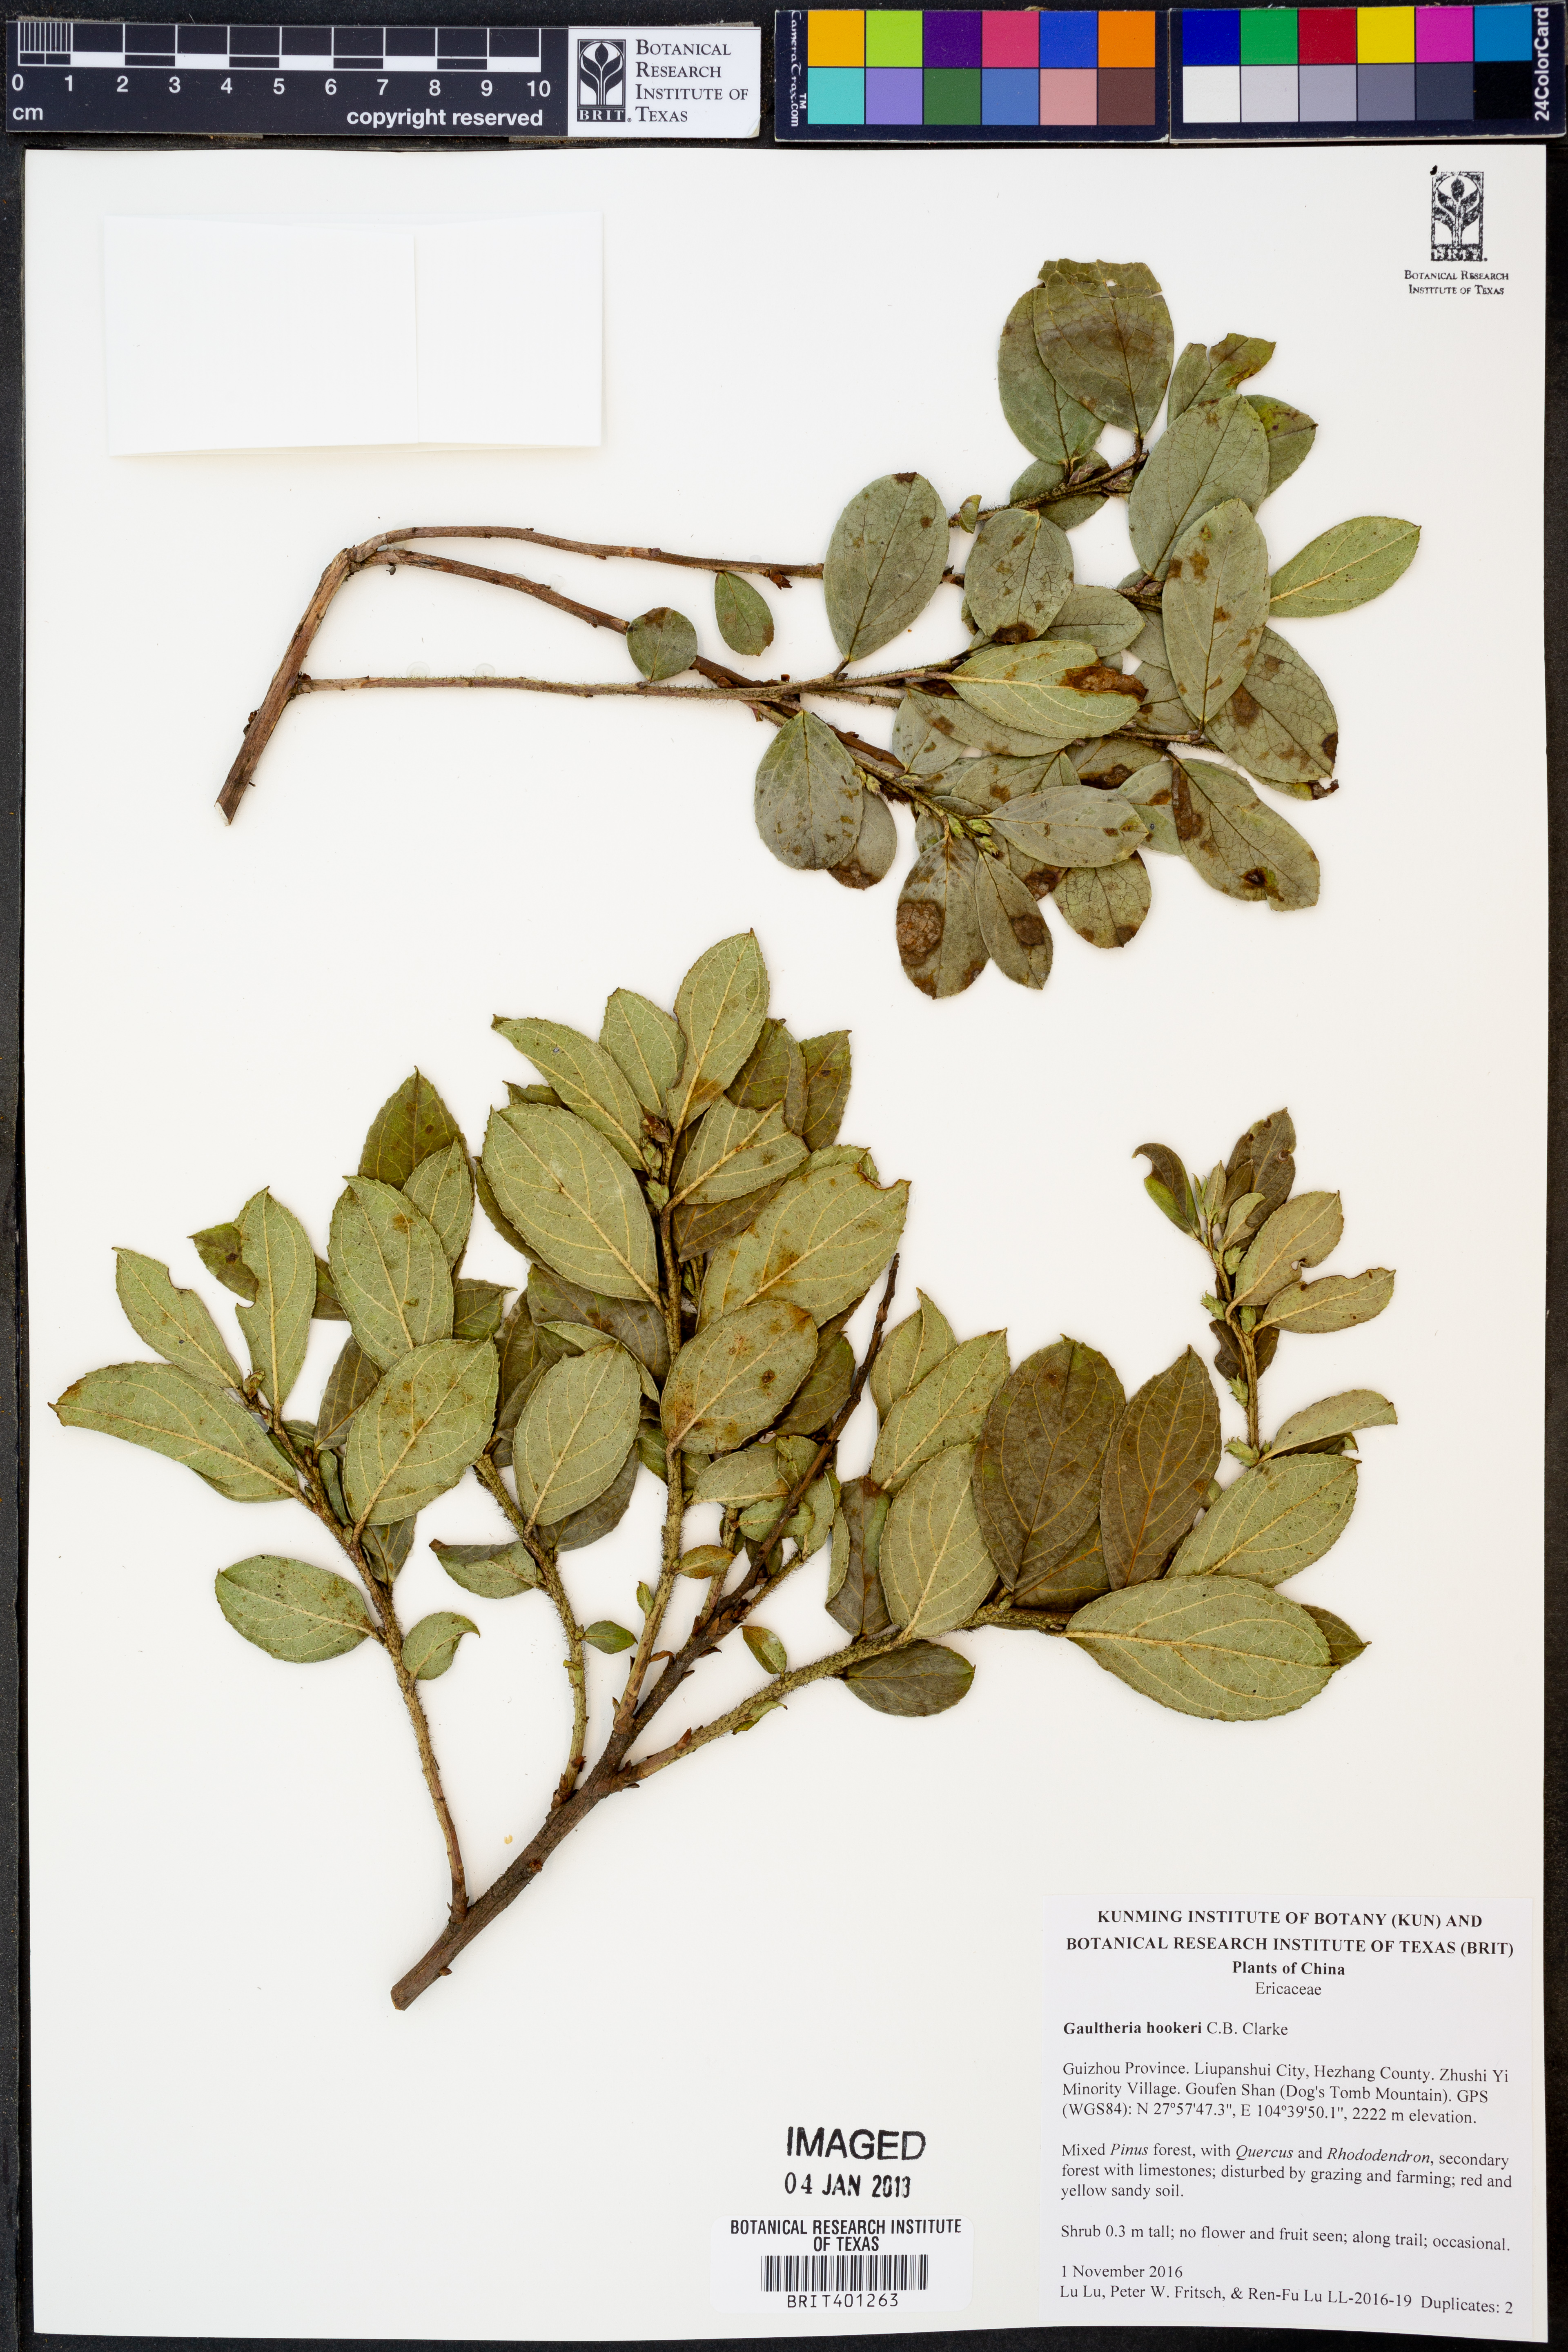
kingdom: Plantae
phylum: Tracheophyta
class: Magnoliopsida
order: Ericales
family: Ericaceae
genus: Gaultheria
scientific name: Gaultheria hookeri
